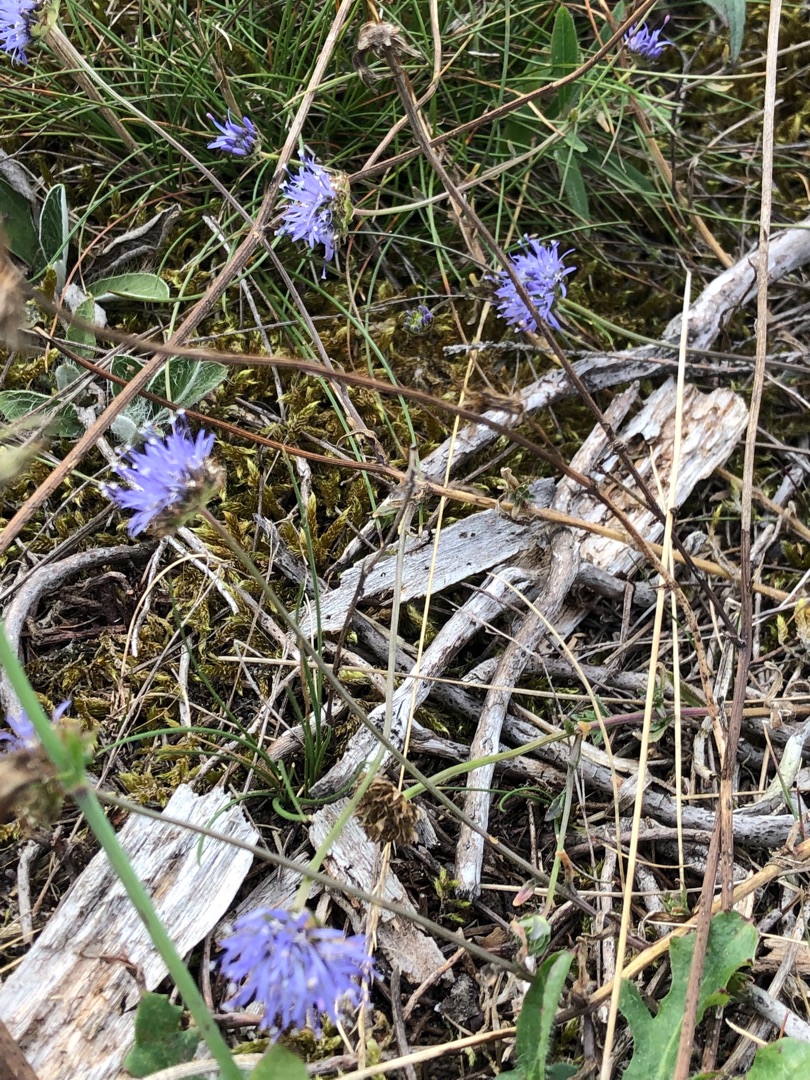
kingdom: Plantae
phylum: Tracheophyta
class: Magnoliopsida
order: Asterales
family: Campanulaceae
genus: Jasione
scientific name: Jasione montana
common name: Blåmunke
